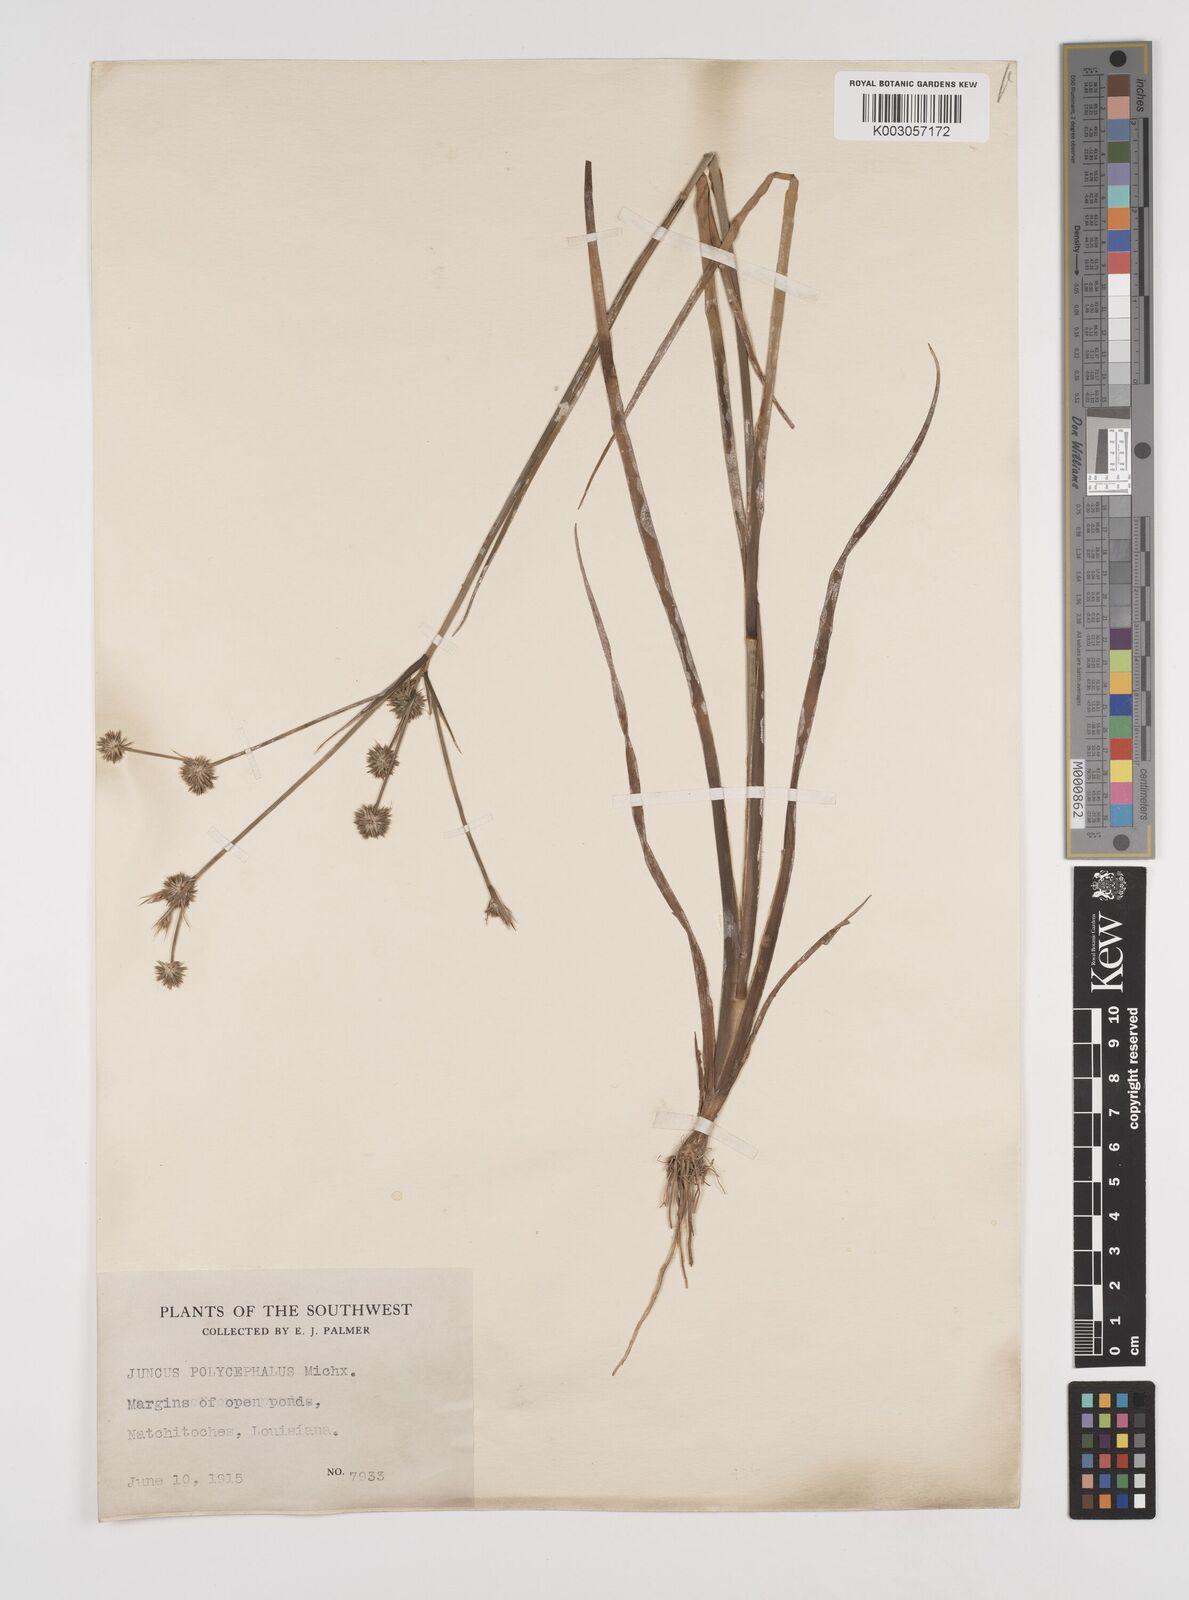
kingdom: Plantae
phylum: Tracheophyta
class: Liliopsida
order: Poales
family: Juncaceae
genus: Juncus
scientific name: Juncus phaeocephalus
